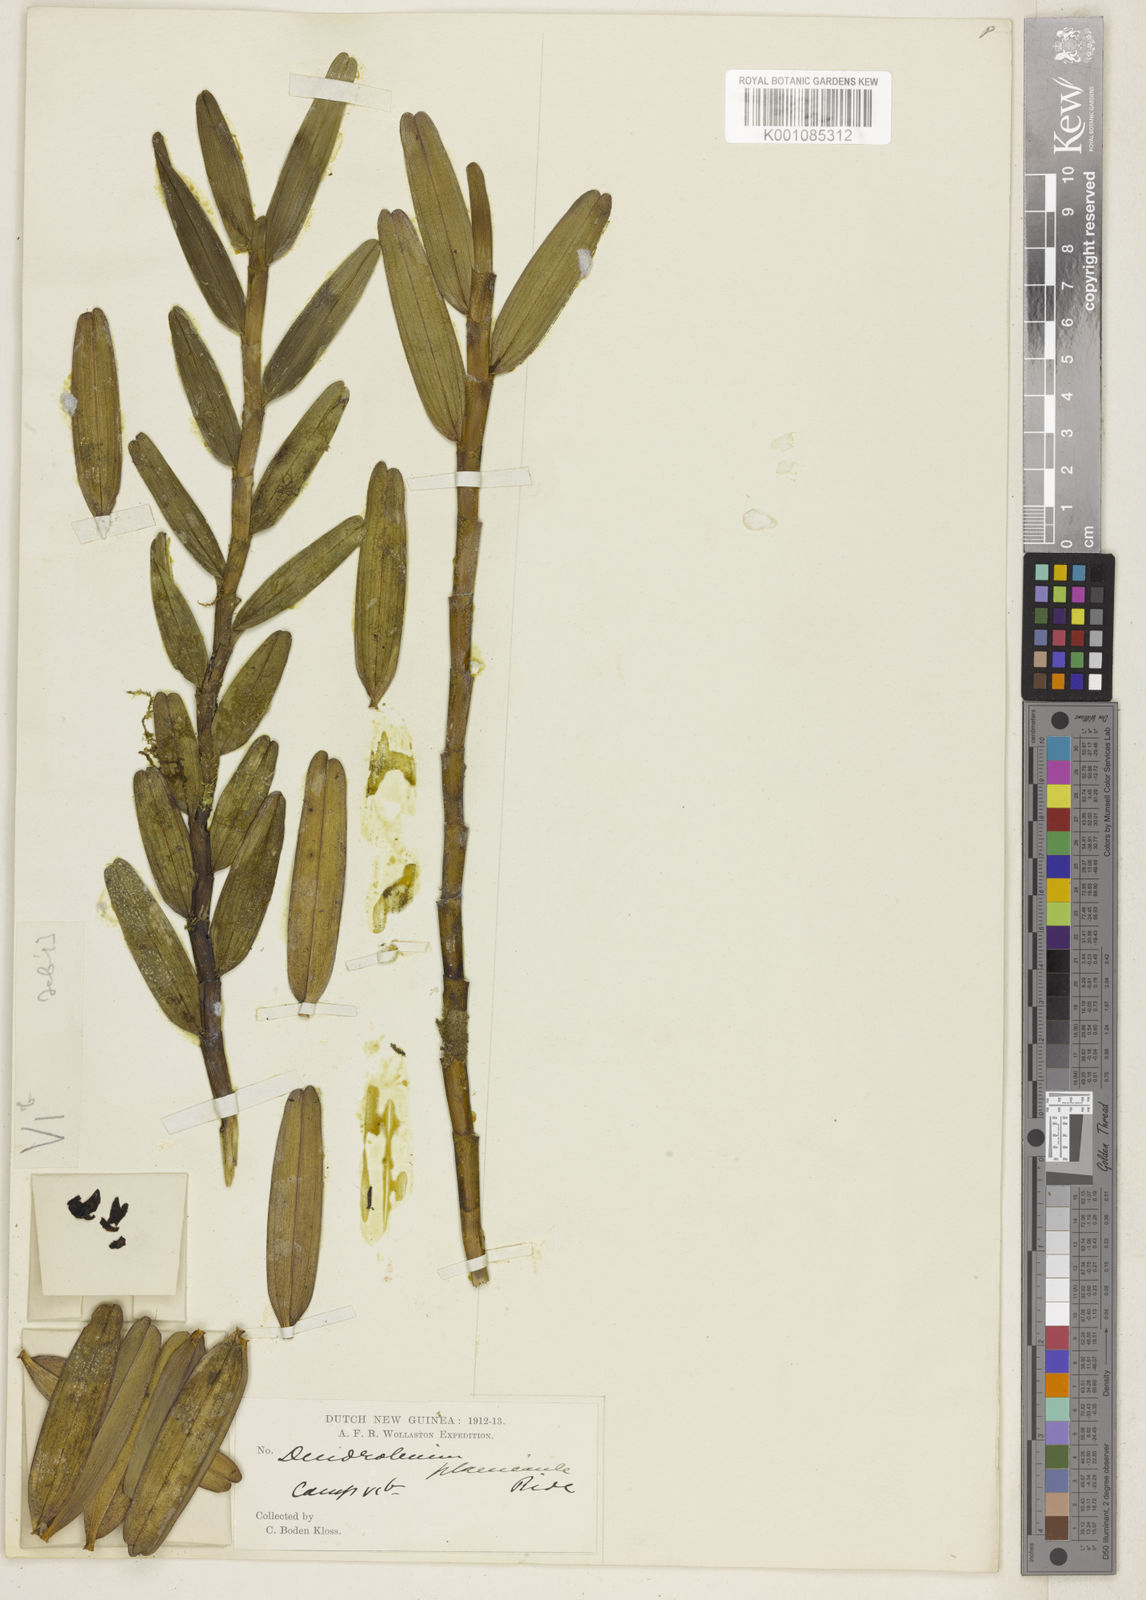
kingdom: Plantae
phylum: Tracheophyta
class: Liliopsida
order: Asparagales
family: Orchidaceae
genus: Dendrobium
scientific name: Dendrobium planicaule
